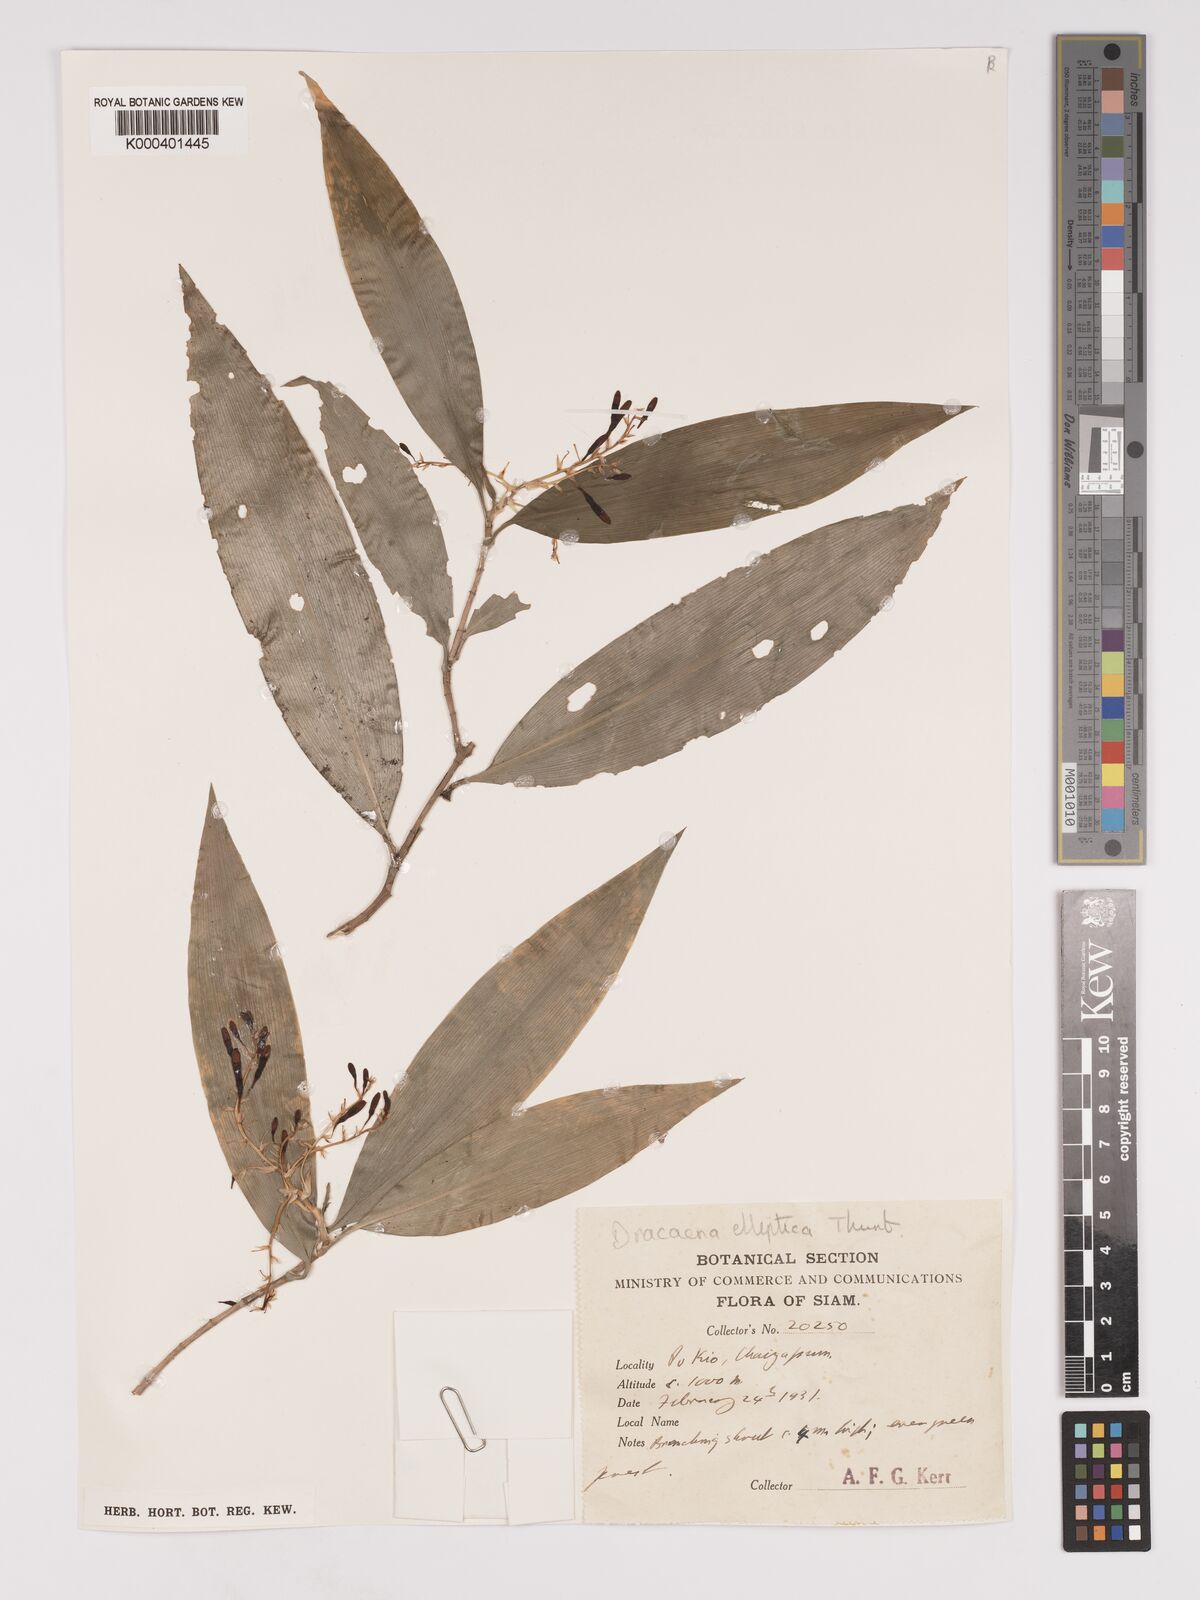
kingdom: Plantae
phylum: Tracheophyta
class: Liliopsida
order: Asparagales
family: Asparagaceae
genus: Dracaena
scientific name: Dracaena elliptica
